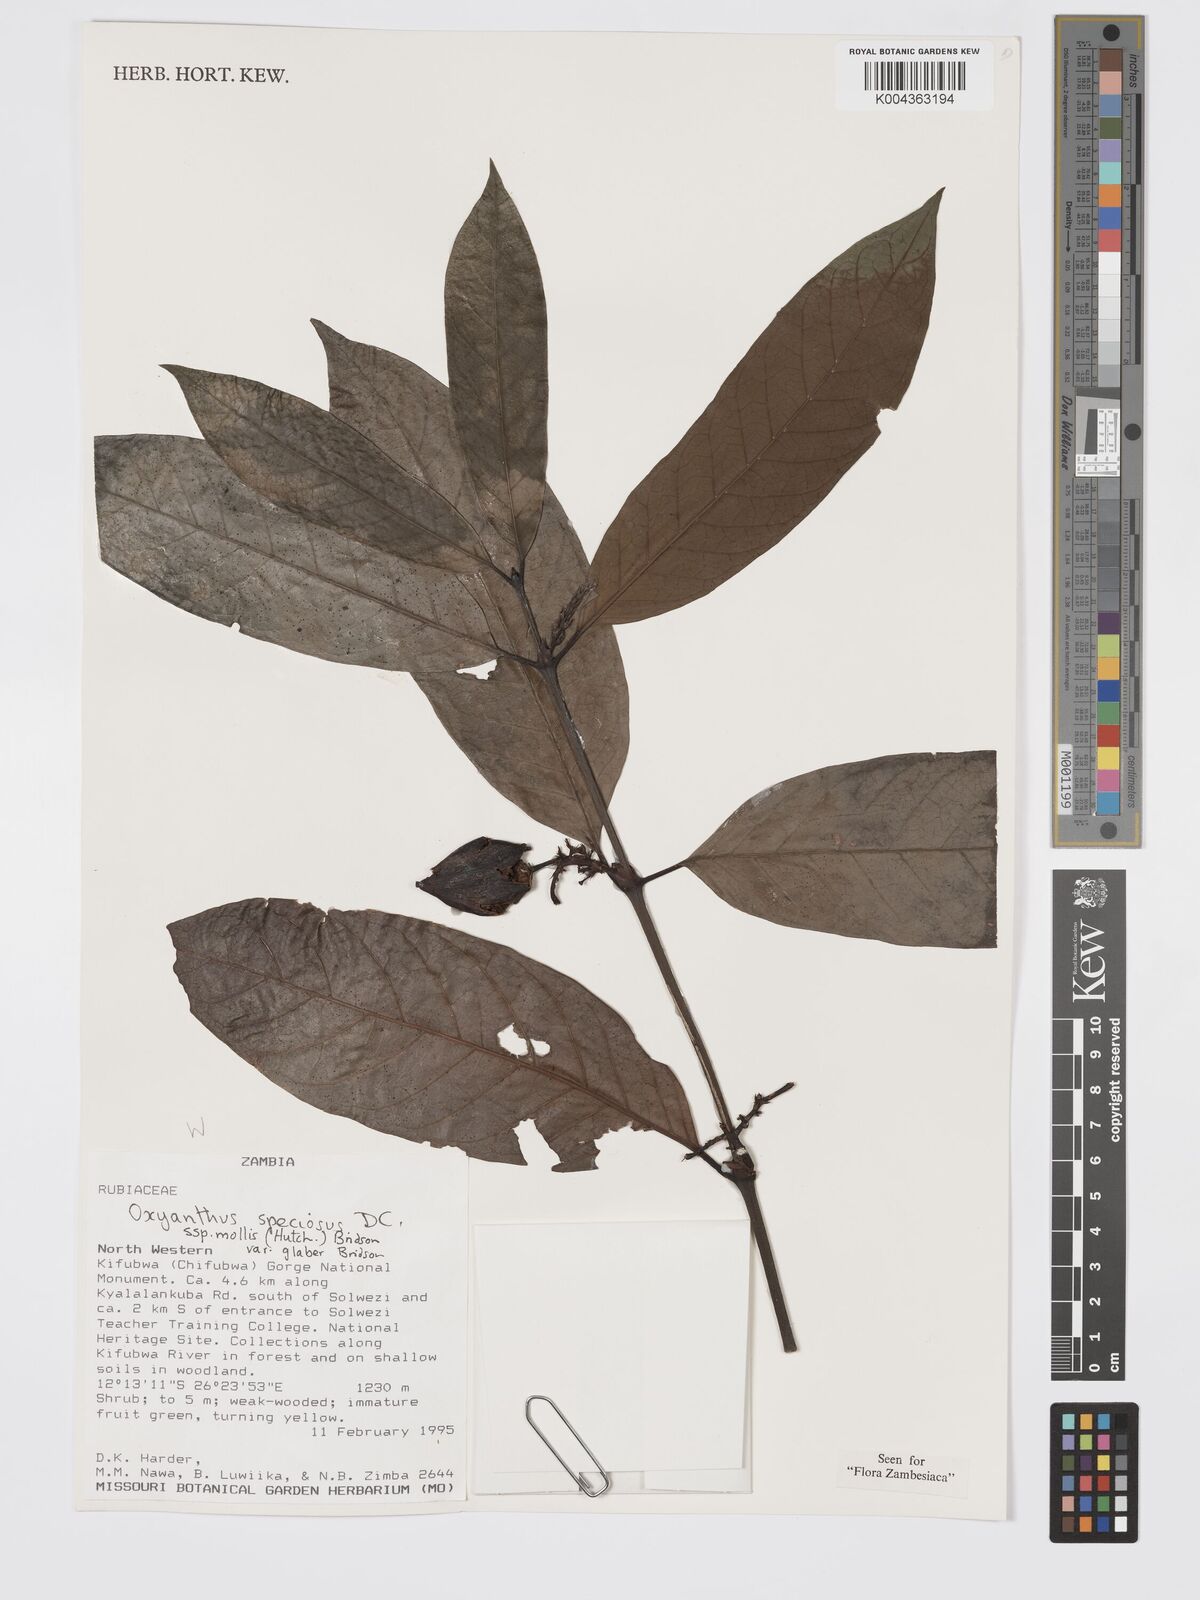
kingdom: Plantae
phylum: Tracheophyta
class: Magnoliopsida
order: Gentianales
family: Rubiaceae
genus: Oxyanthus
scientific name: Oxyanthus speciosus
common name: Whipstick loquat
